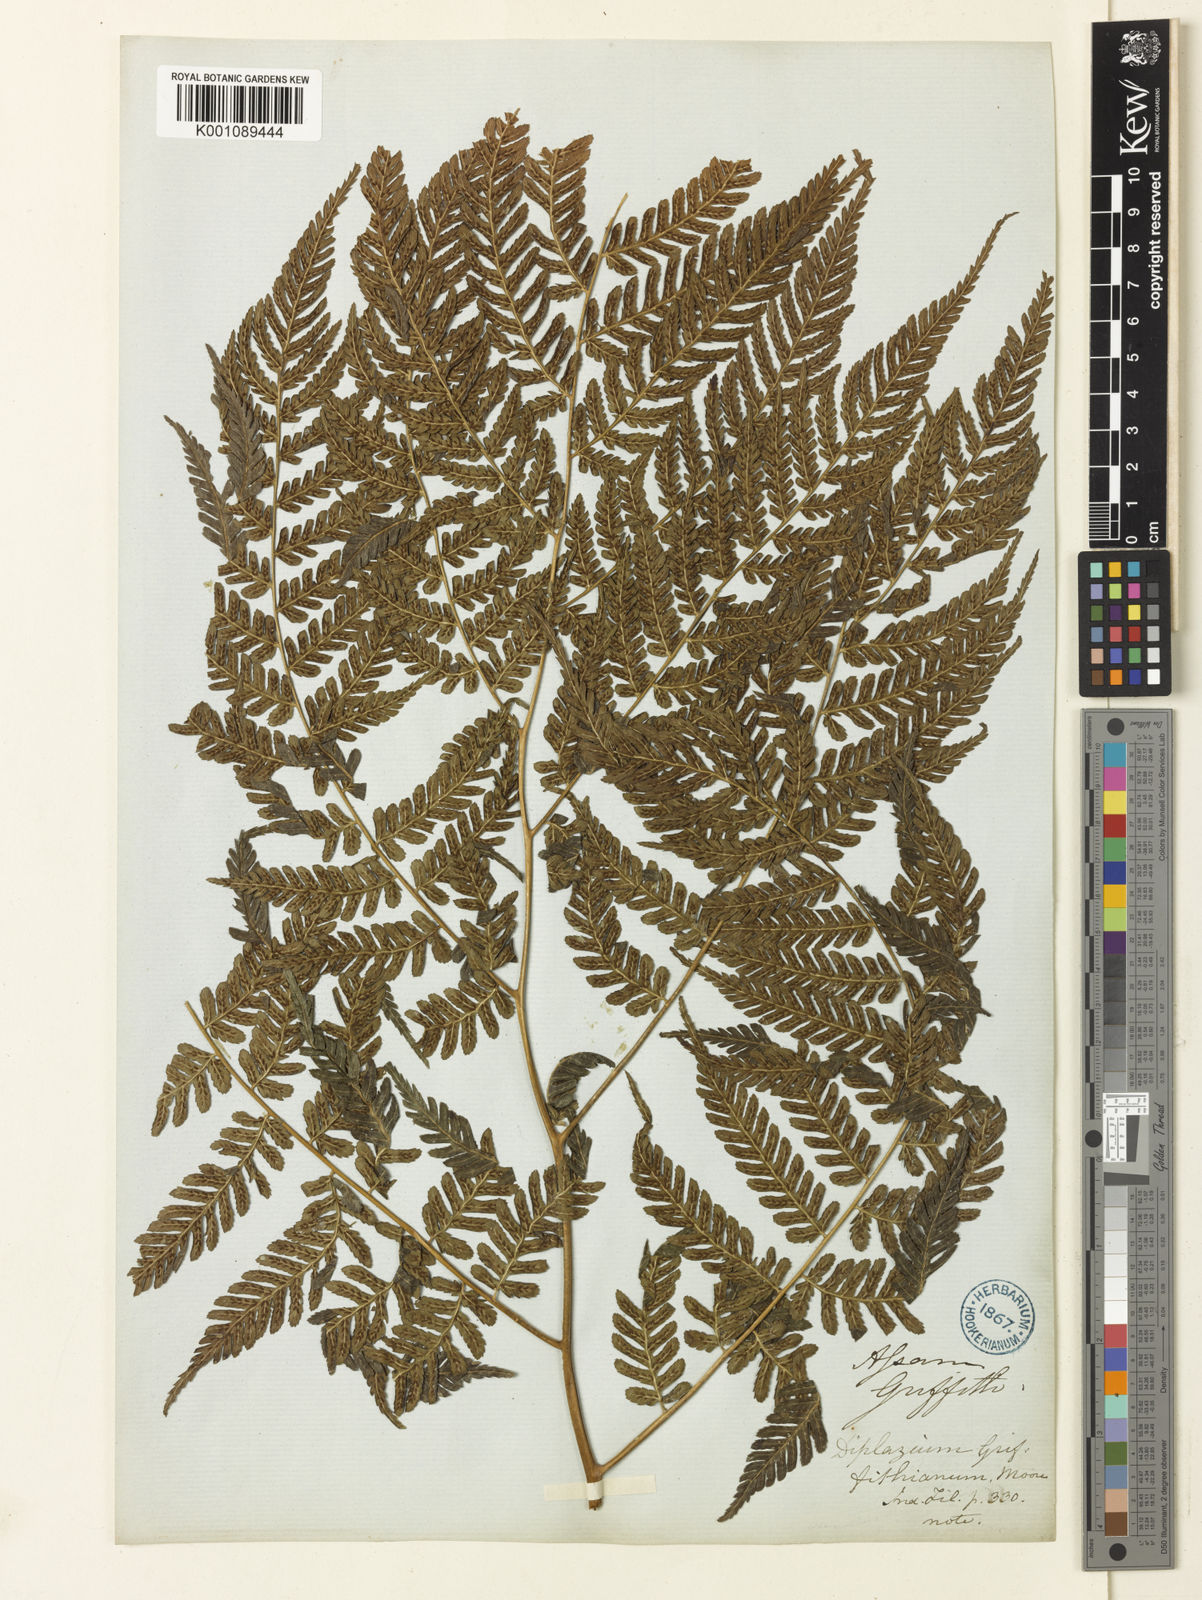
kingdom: Plantae
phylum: Tracheophyta
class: Polypodiopsida
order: Polypodiales
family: Athyriaceae
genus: Diplazium
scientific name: Diplazium spectabile
